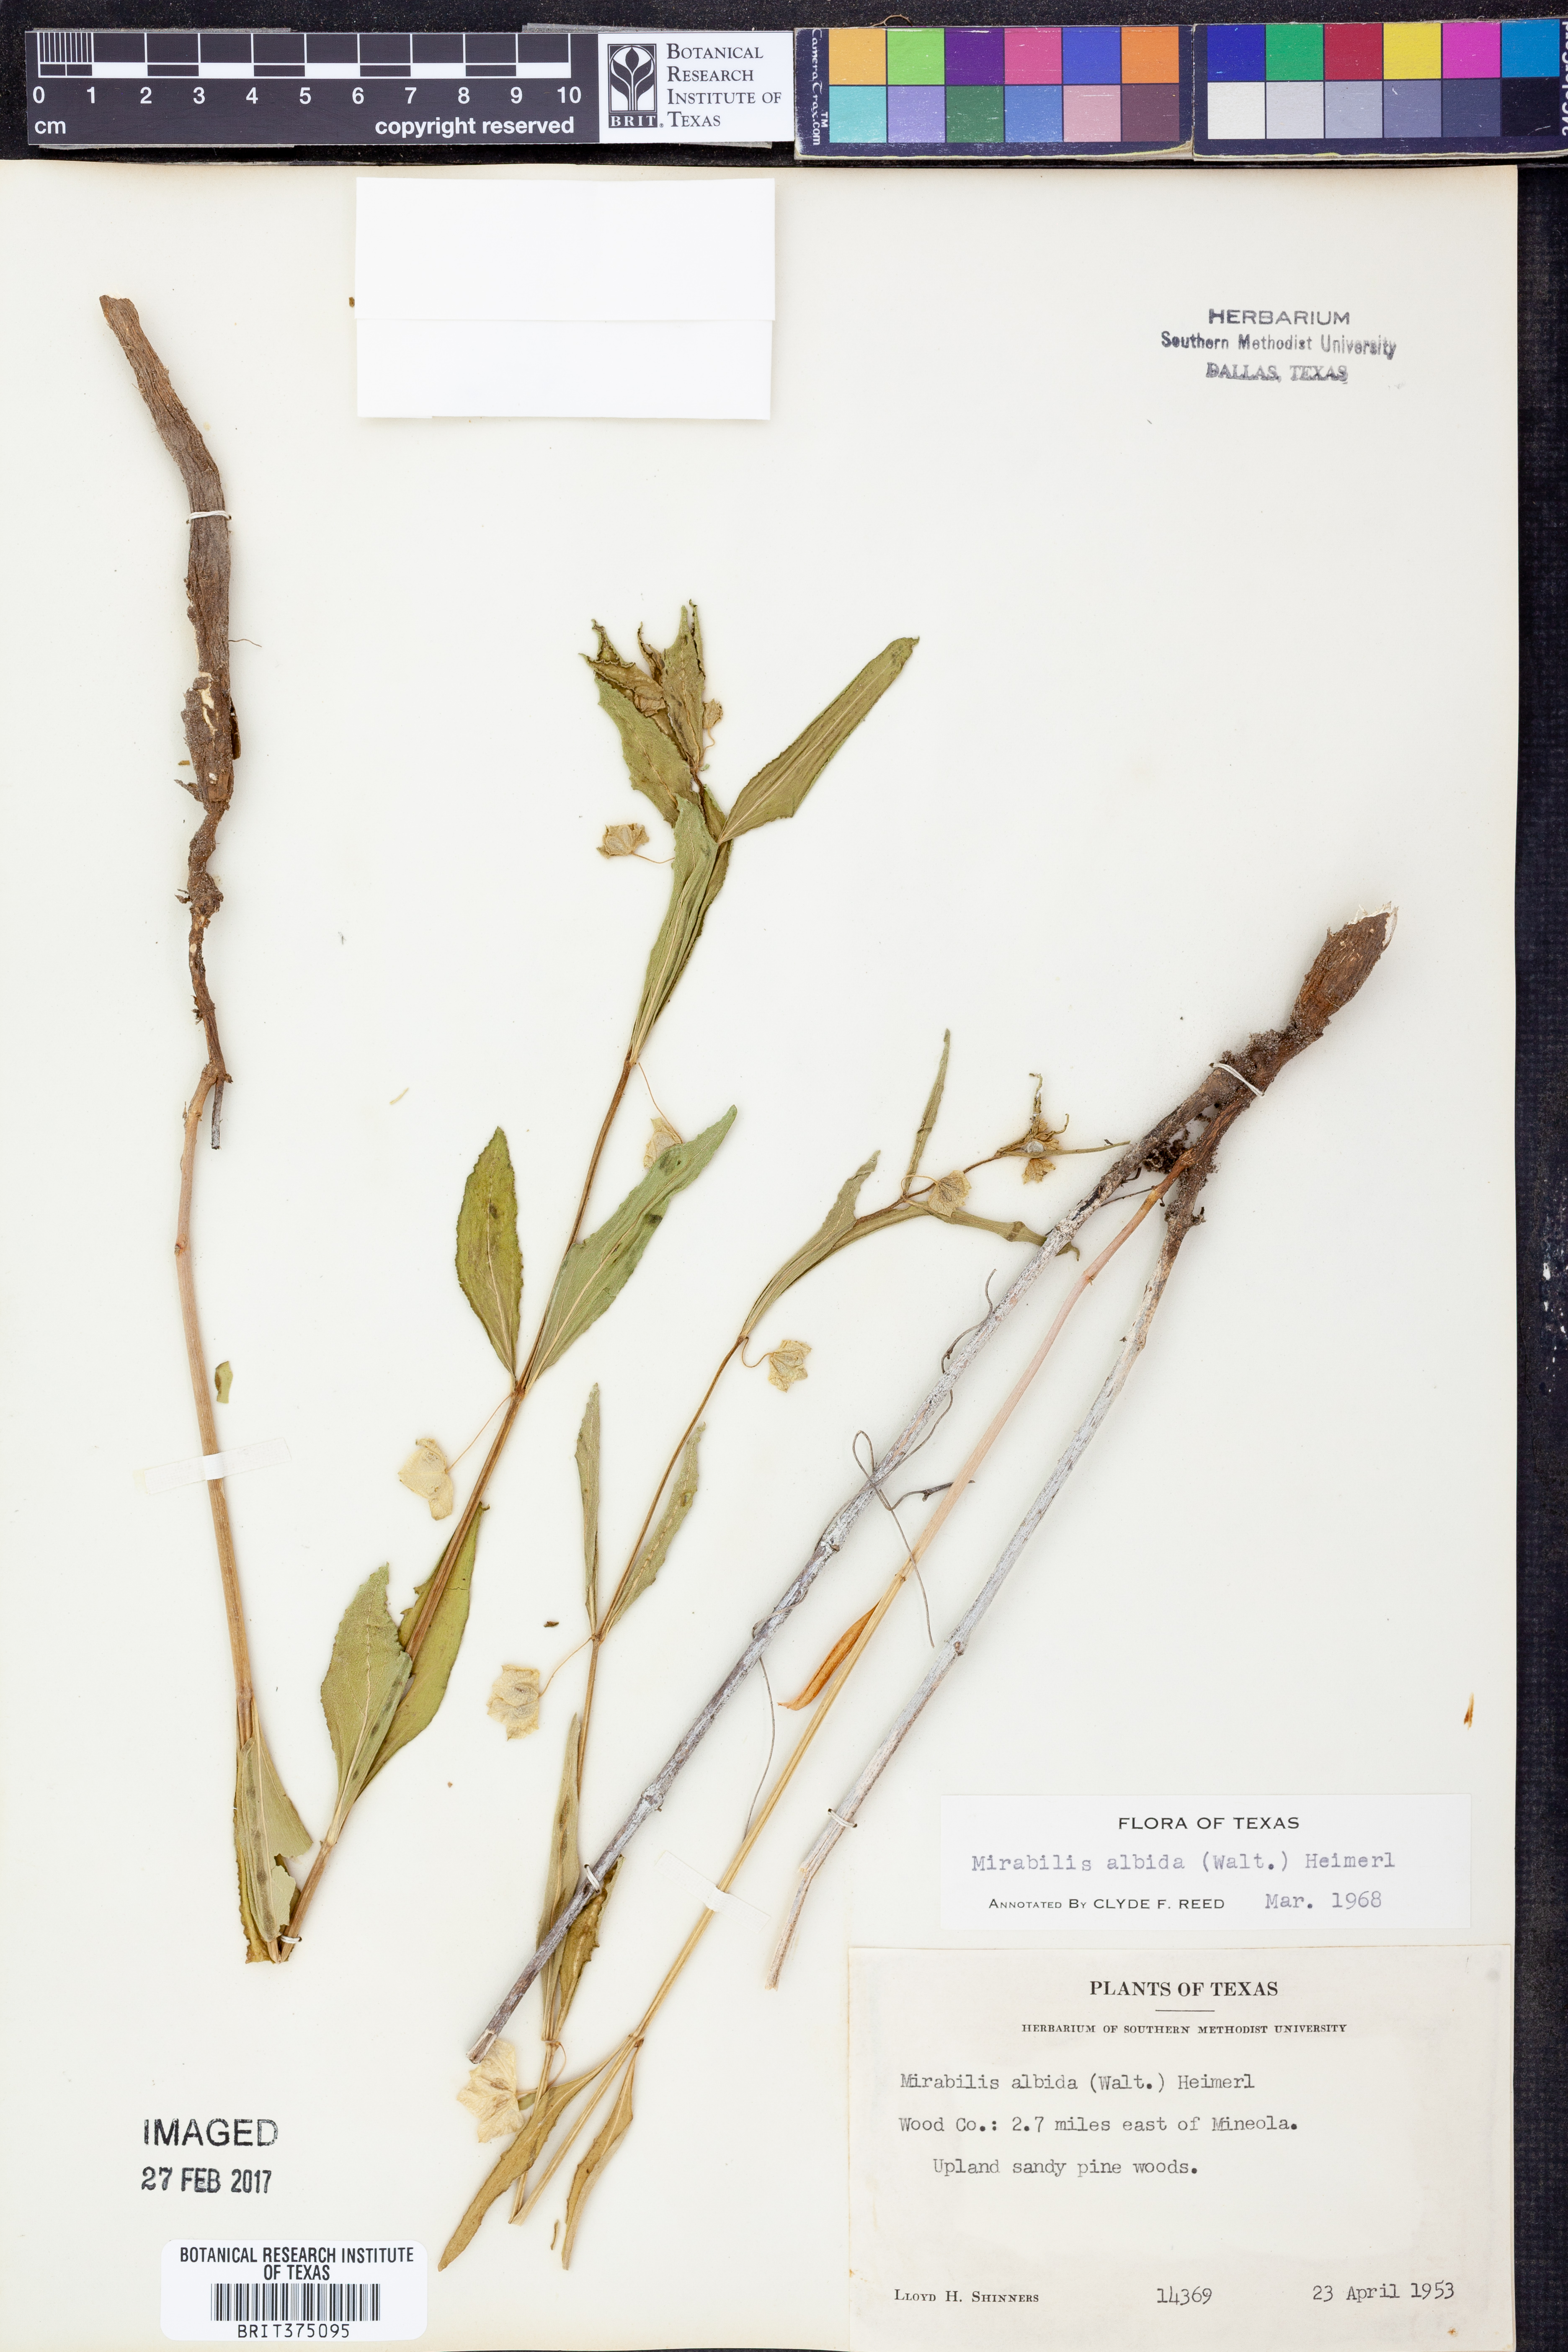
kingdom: Plantae
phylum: Tracheophyta
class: Magnoliopsida
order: Caryophyllales
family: Nyctaginaceae
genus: Mirabilis
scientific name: Mirabilis albida
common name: Hairy four-o'clock
